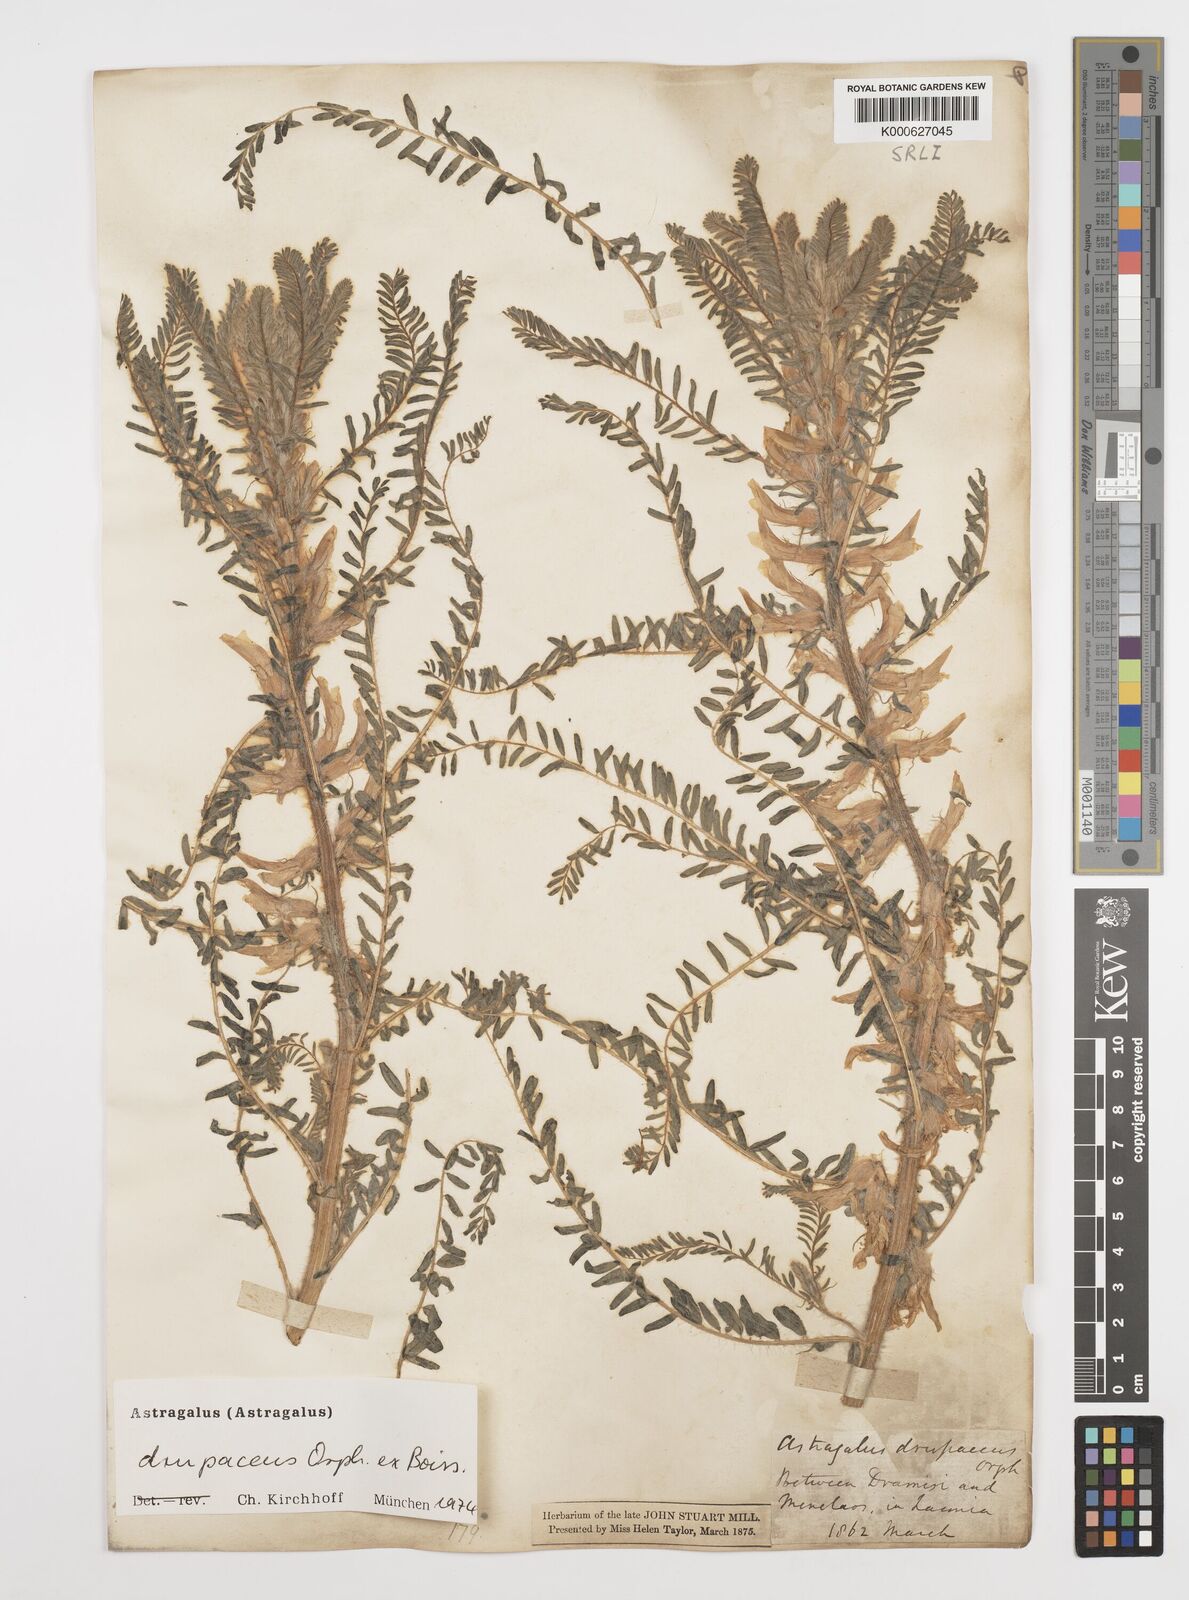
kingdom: Plantae
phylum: Tracheophyta
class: Magnoliopsida
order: Fabales
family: Fabaceae
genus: Astragalus
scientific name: Astragalus drupaceus
